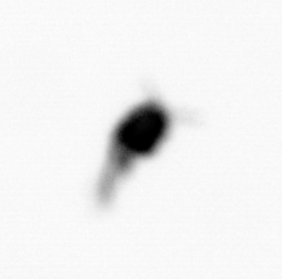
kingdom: Animalia
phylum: Arthropoda
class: Copepoda
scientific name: Copepoda
